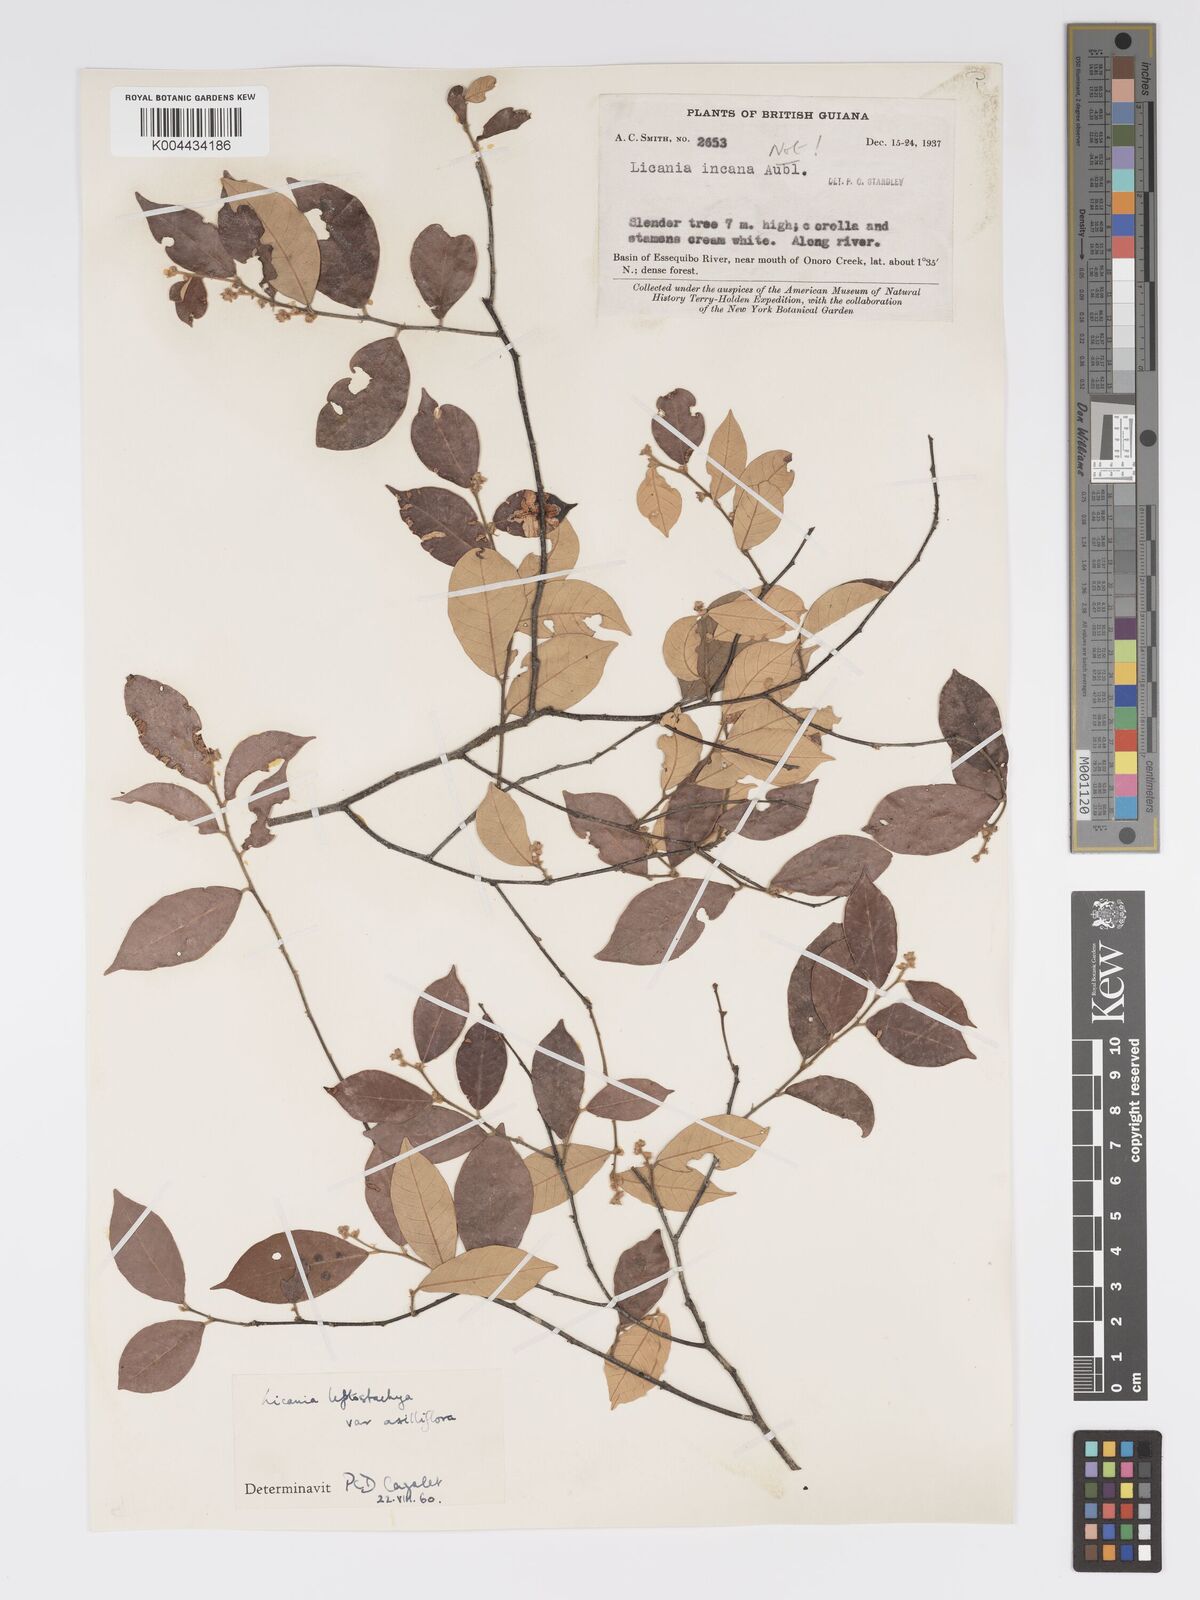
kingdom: Plantae
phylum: Tracheophyta
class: Magnoliopsida
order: Malpighiales
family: Chrysobalanaceae
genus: Licania
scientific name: Licania leptostachya
